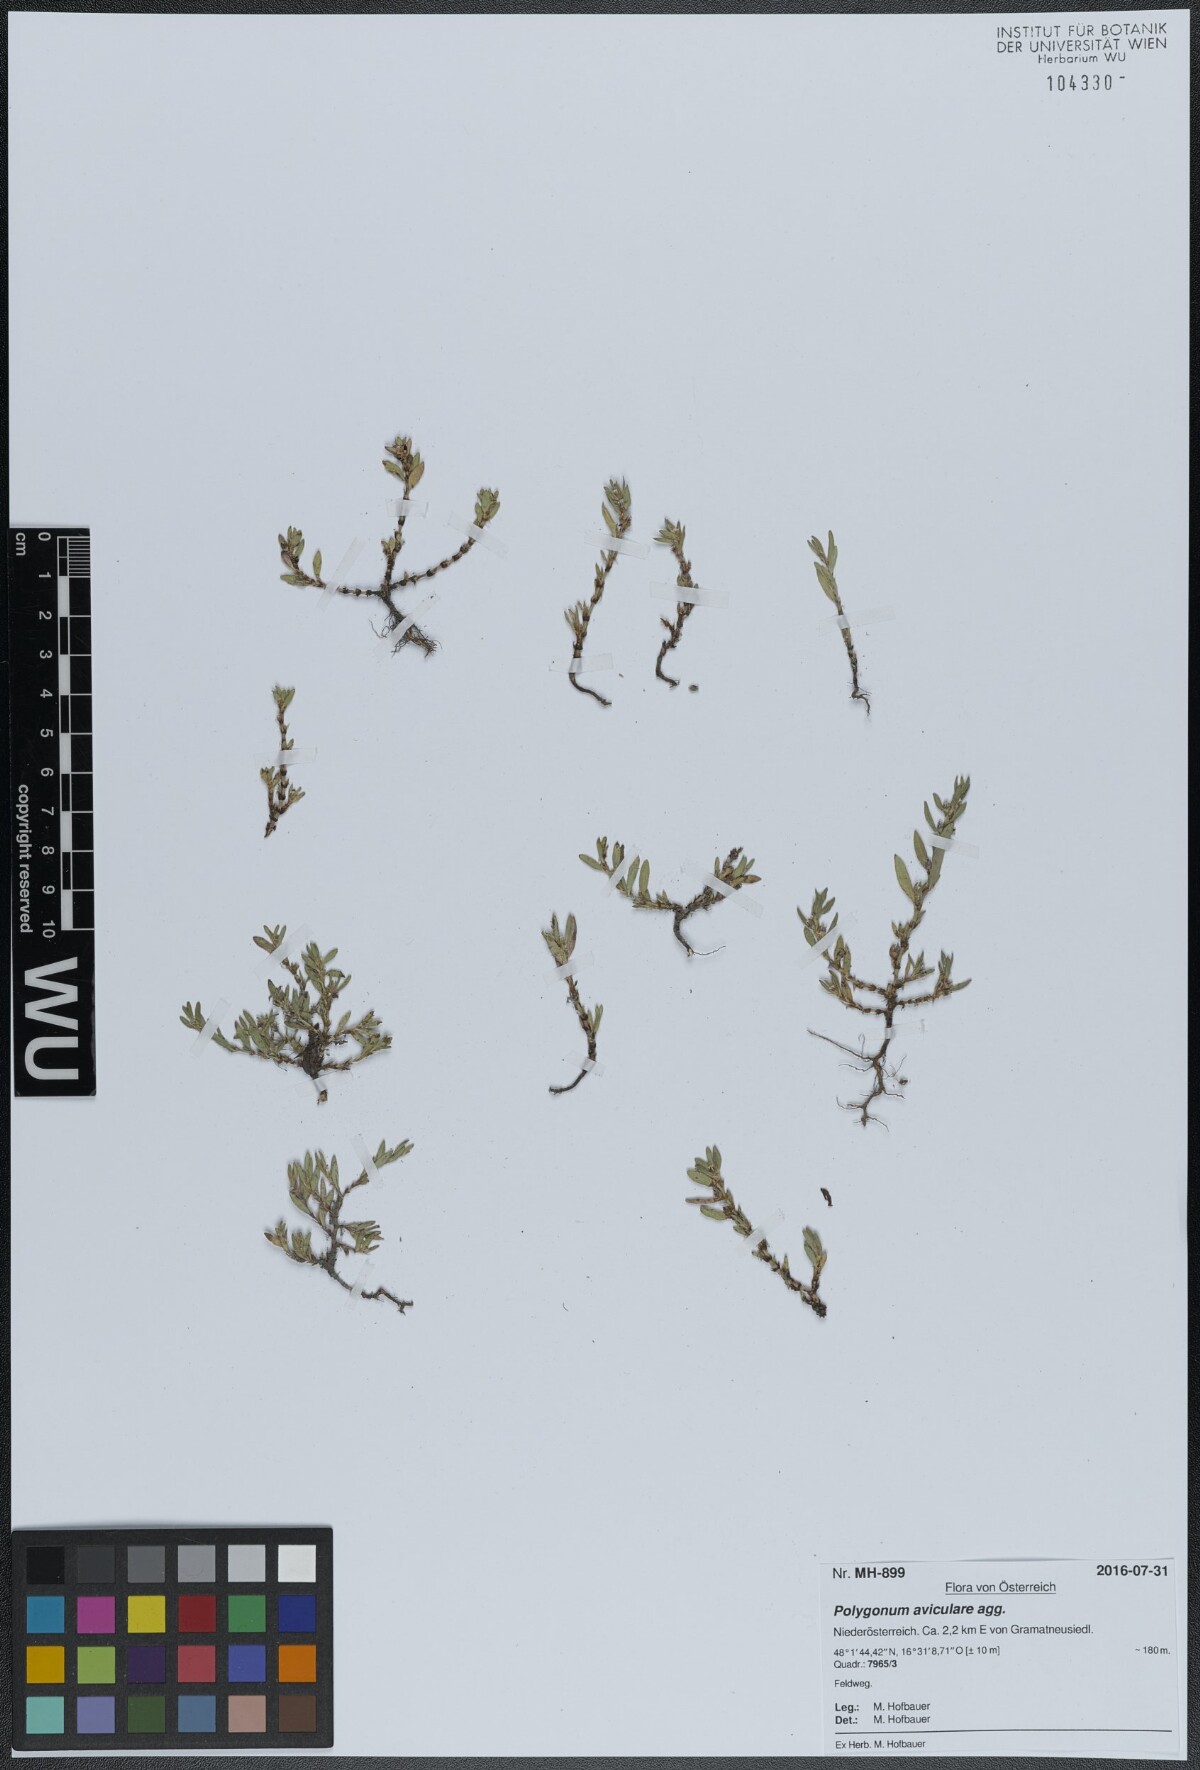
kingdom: Plantae
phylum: Tracheophyta
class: Magnoliopsida
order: Caryophyllales
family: Polygonaceae
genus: Polygonum
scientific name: Polygonum arenastrum
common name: Equal-leaved knotgrass
